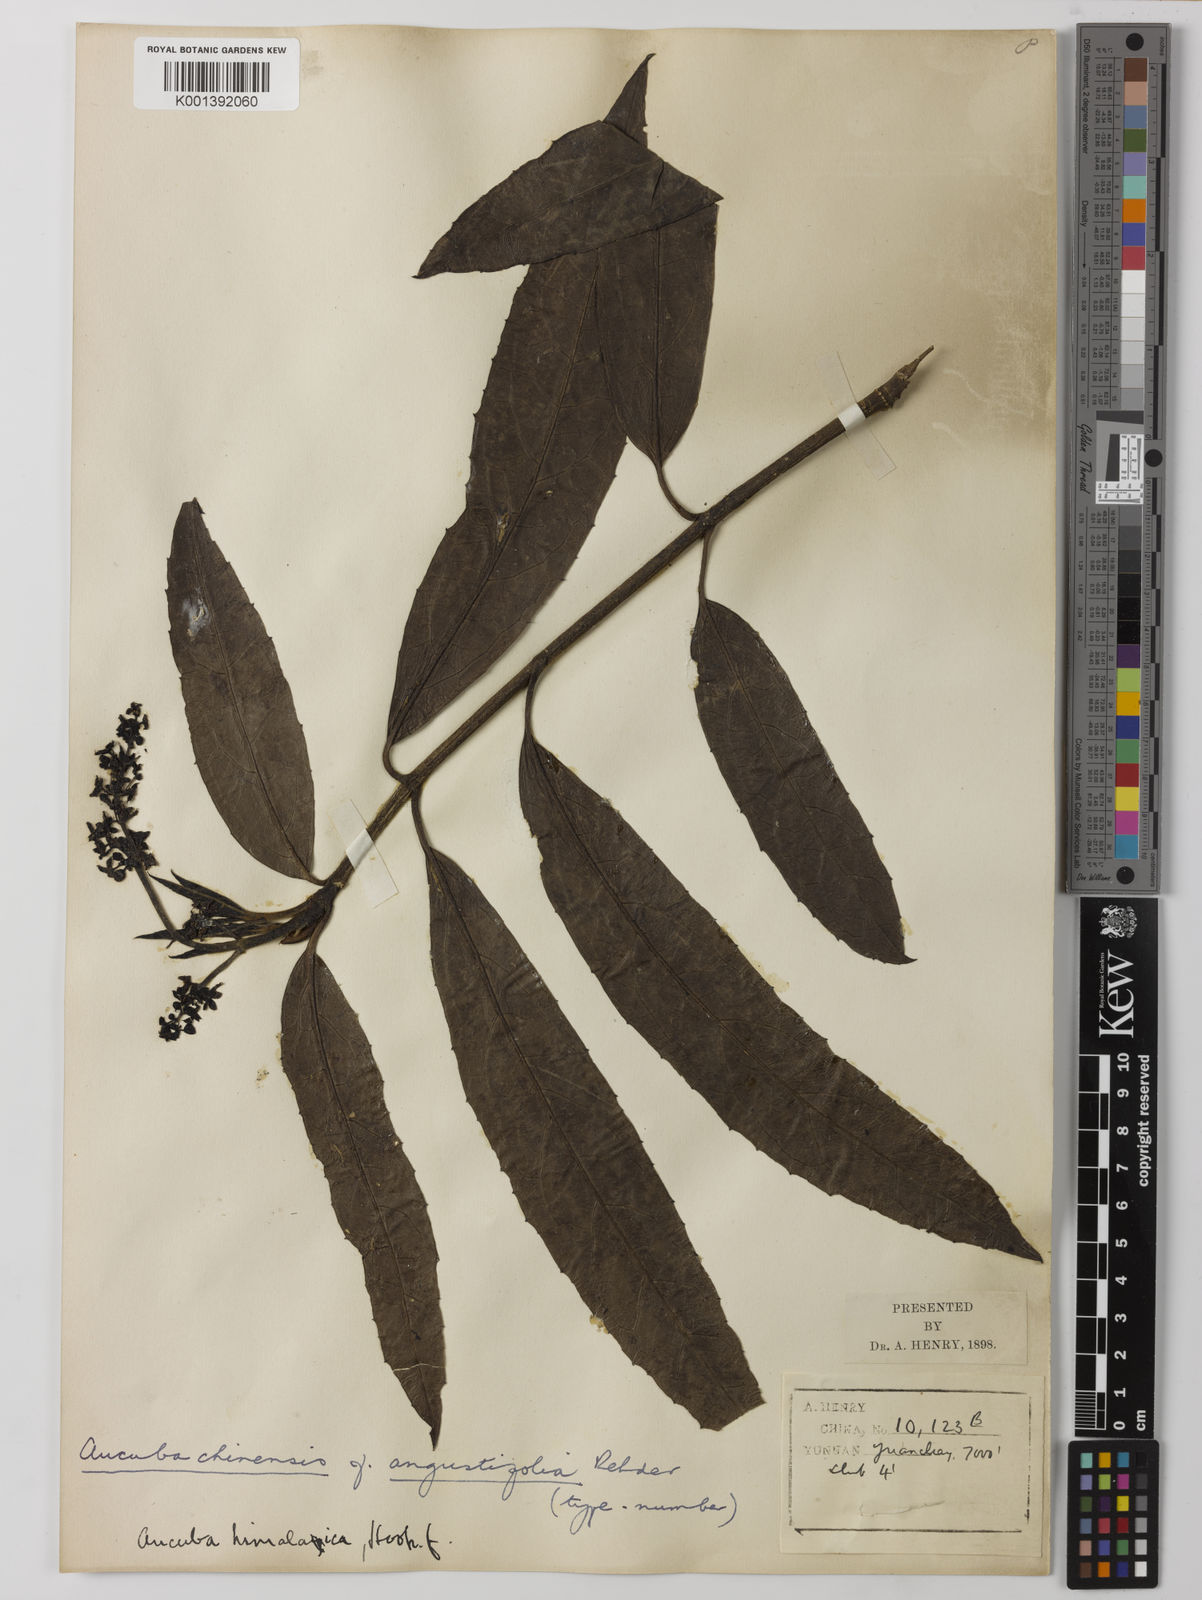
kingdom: Plantae
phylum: Tracheophyta
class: Magnoliopsida
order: Garryales
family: Garryaceae
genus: Aucuba
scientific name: Aucuba chinensis
